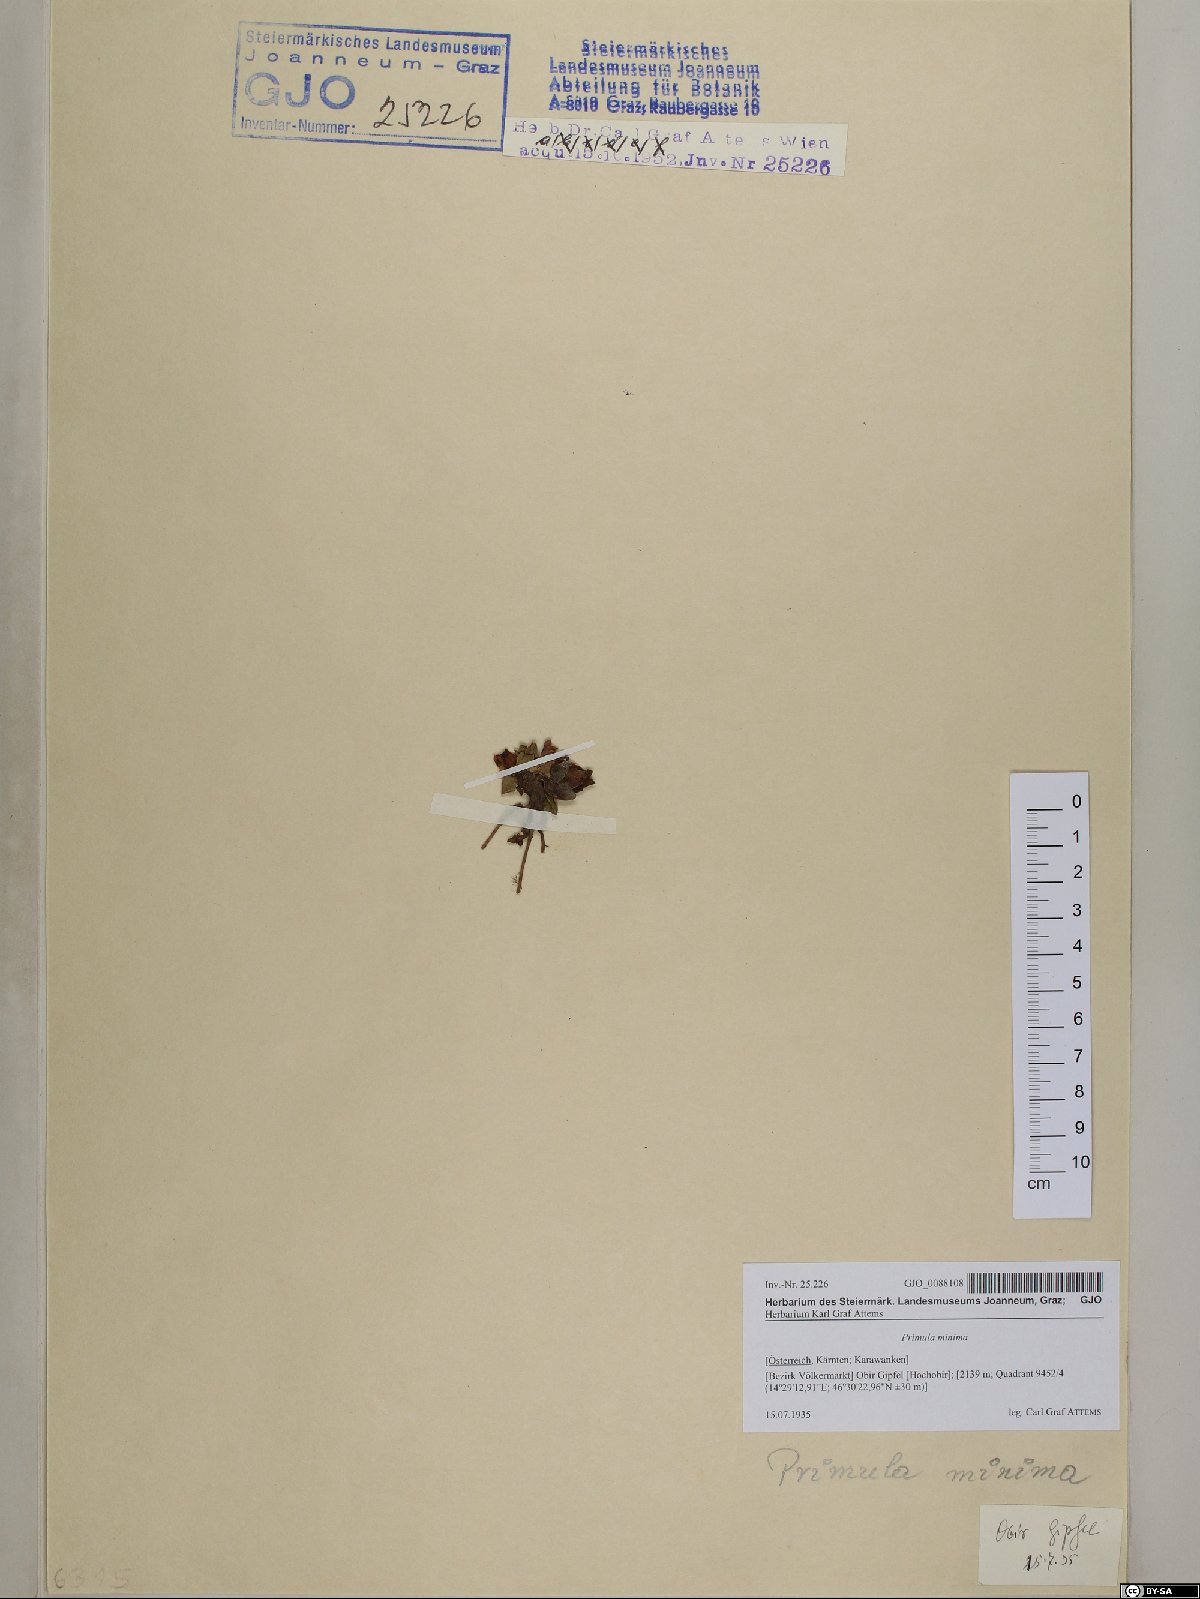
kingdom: Plantae
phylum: Tracheophyta
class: Magnoliopsida
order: Ericales
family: Primulaceae
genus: Primula
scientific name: Primula wulfeniana
